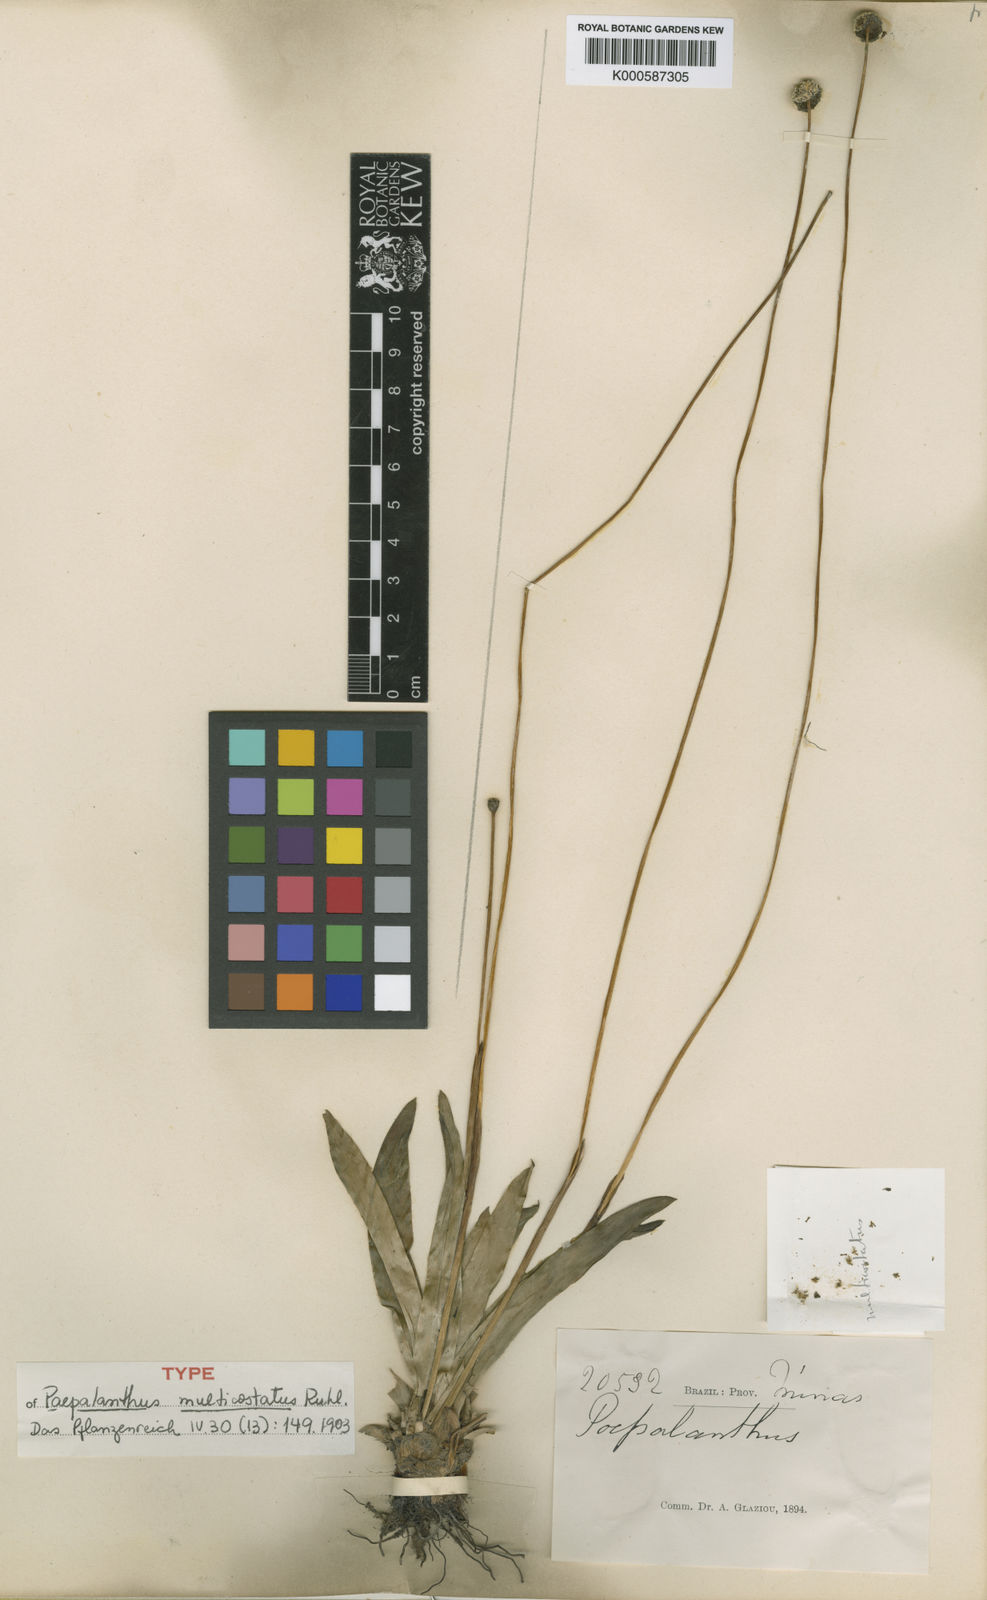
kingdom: Plantae
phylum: Tracheophyta
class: Liliopsida
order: Poales
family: Eriocaulaceae
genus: Paepalanthus
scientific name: Paepalanthus calvus
